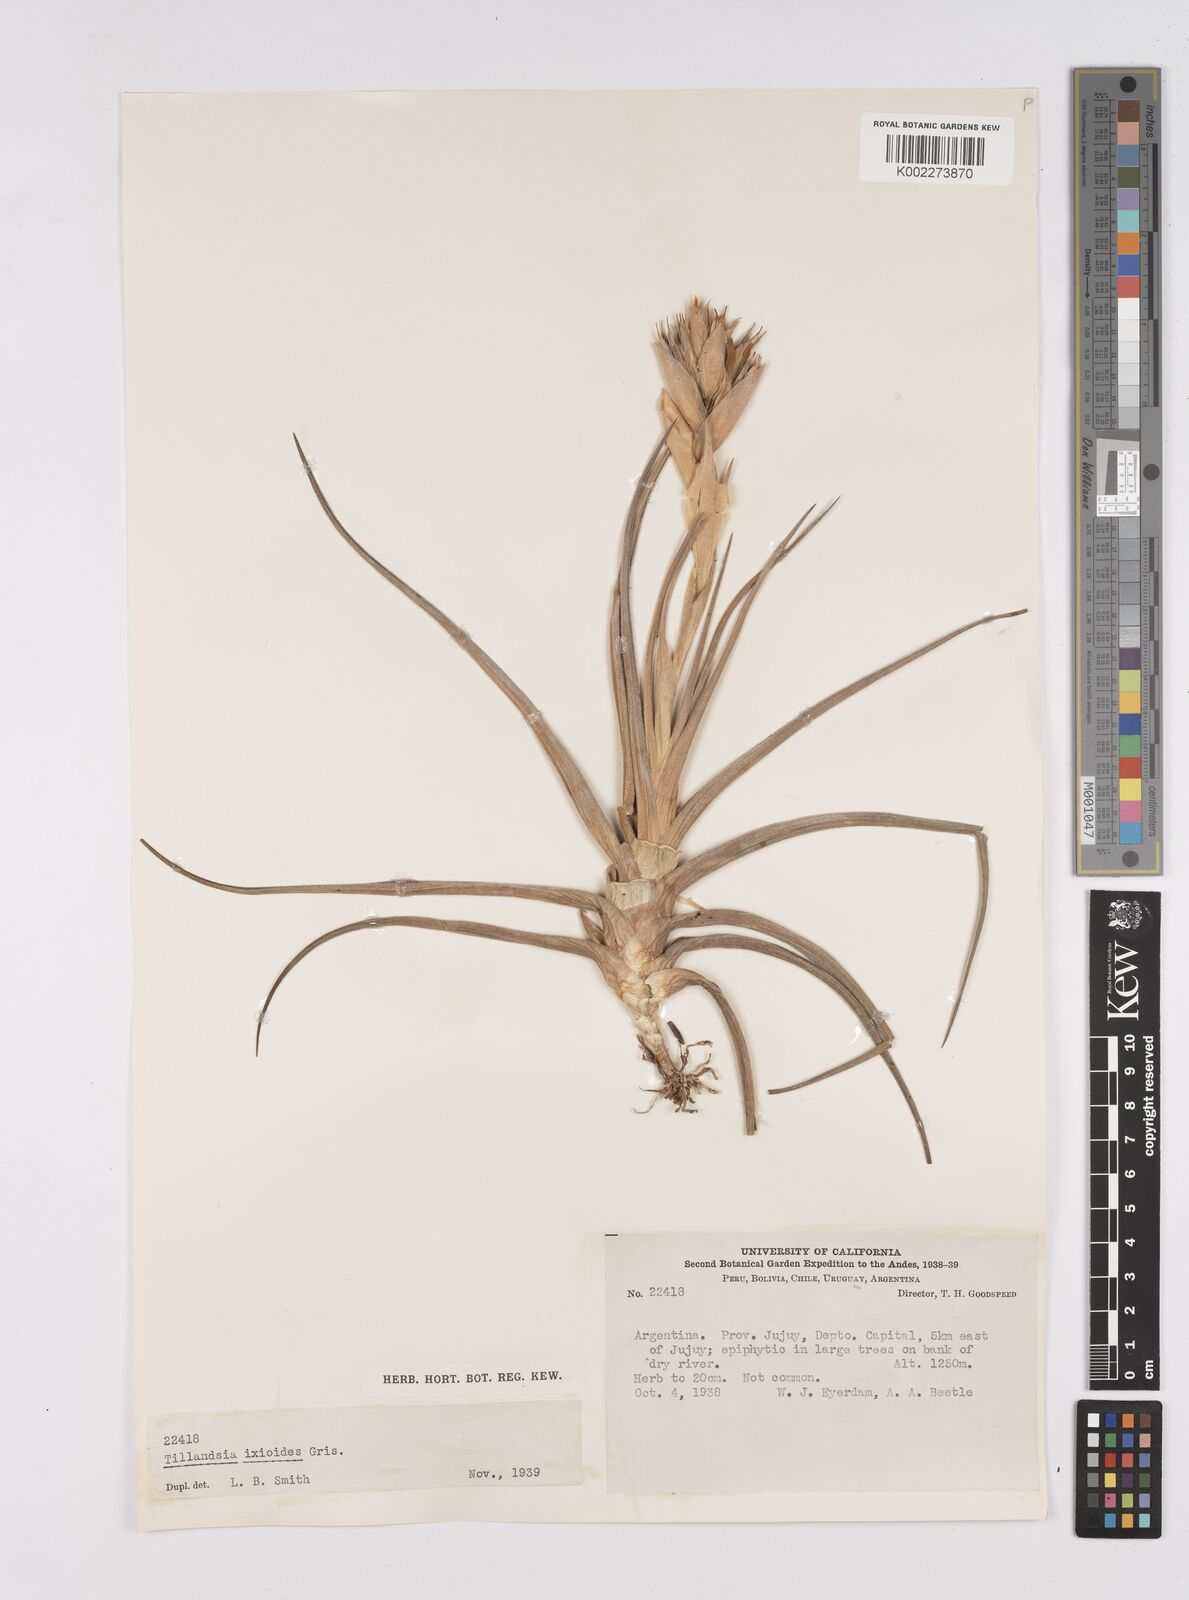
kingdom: Plantae
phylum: Tracheophyta
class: Liliopsida
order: Poales
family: Bromeliaceae
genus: Tillandsia
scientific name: Tillandsia ixioides
